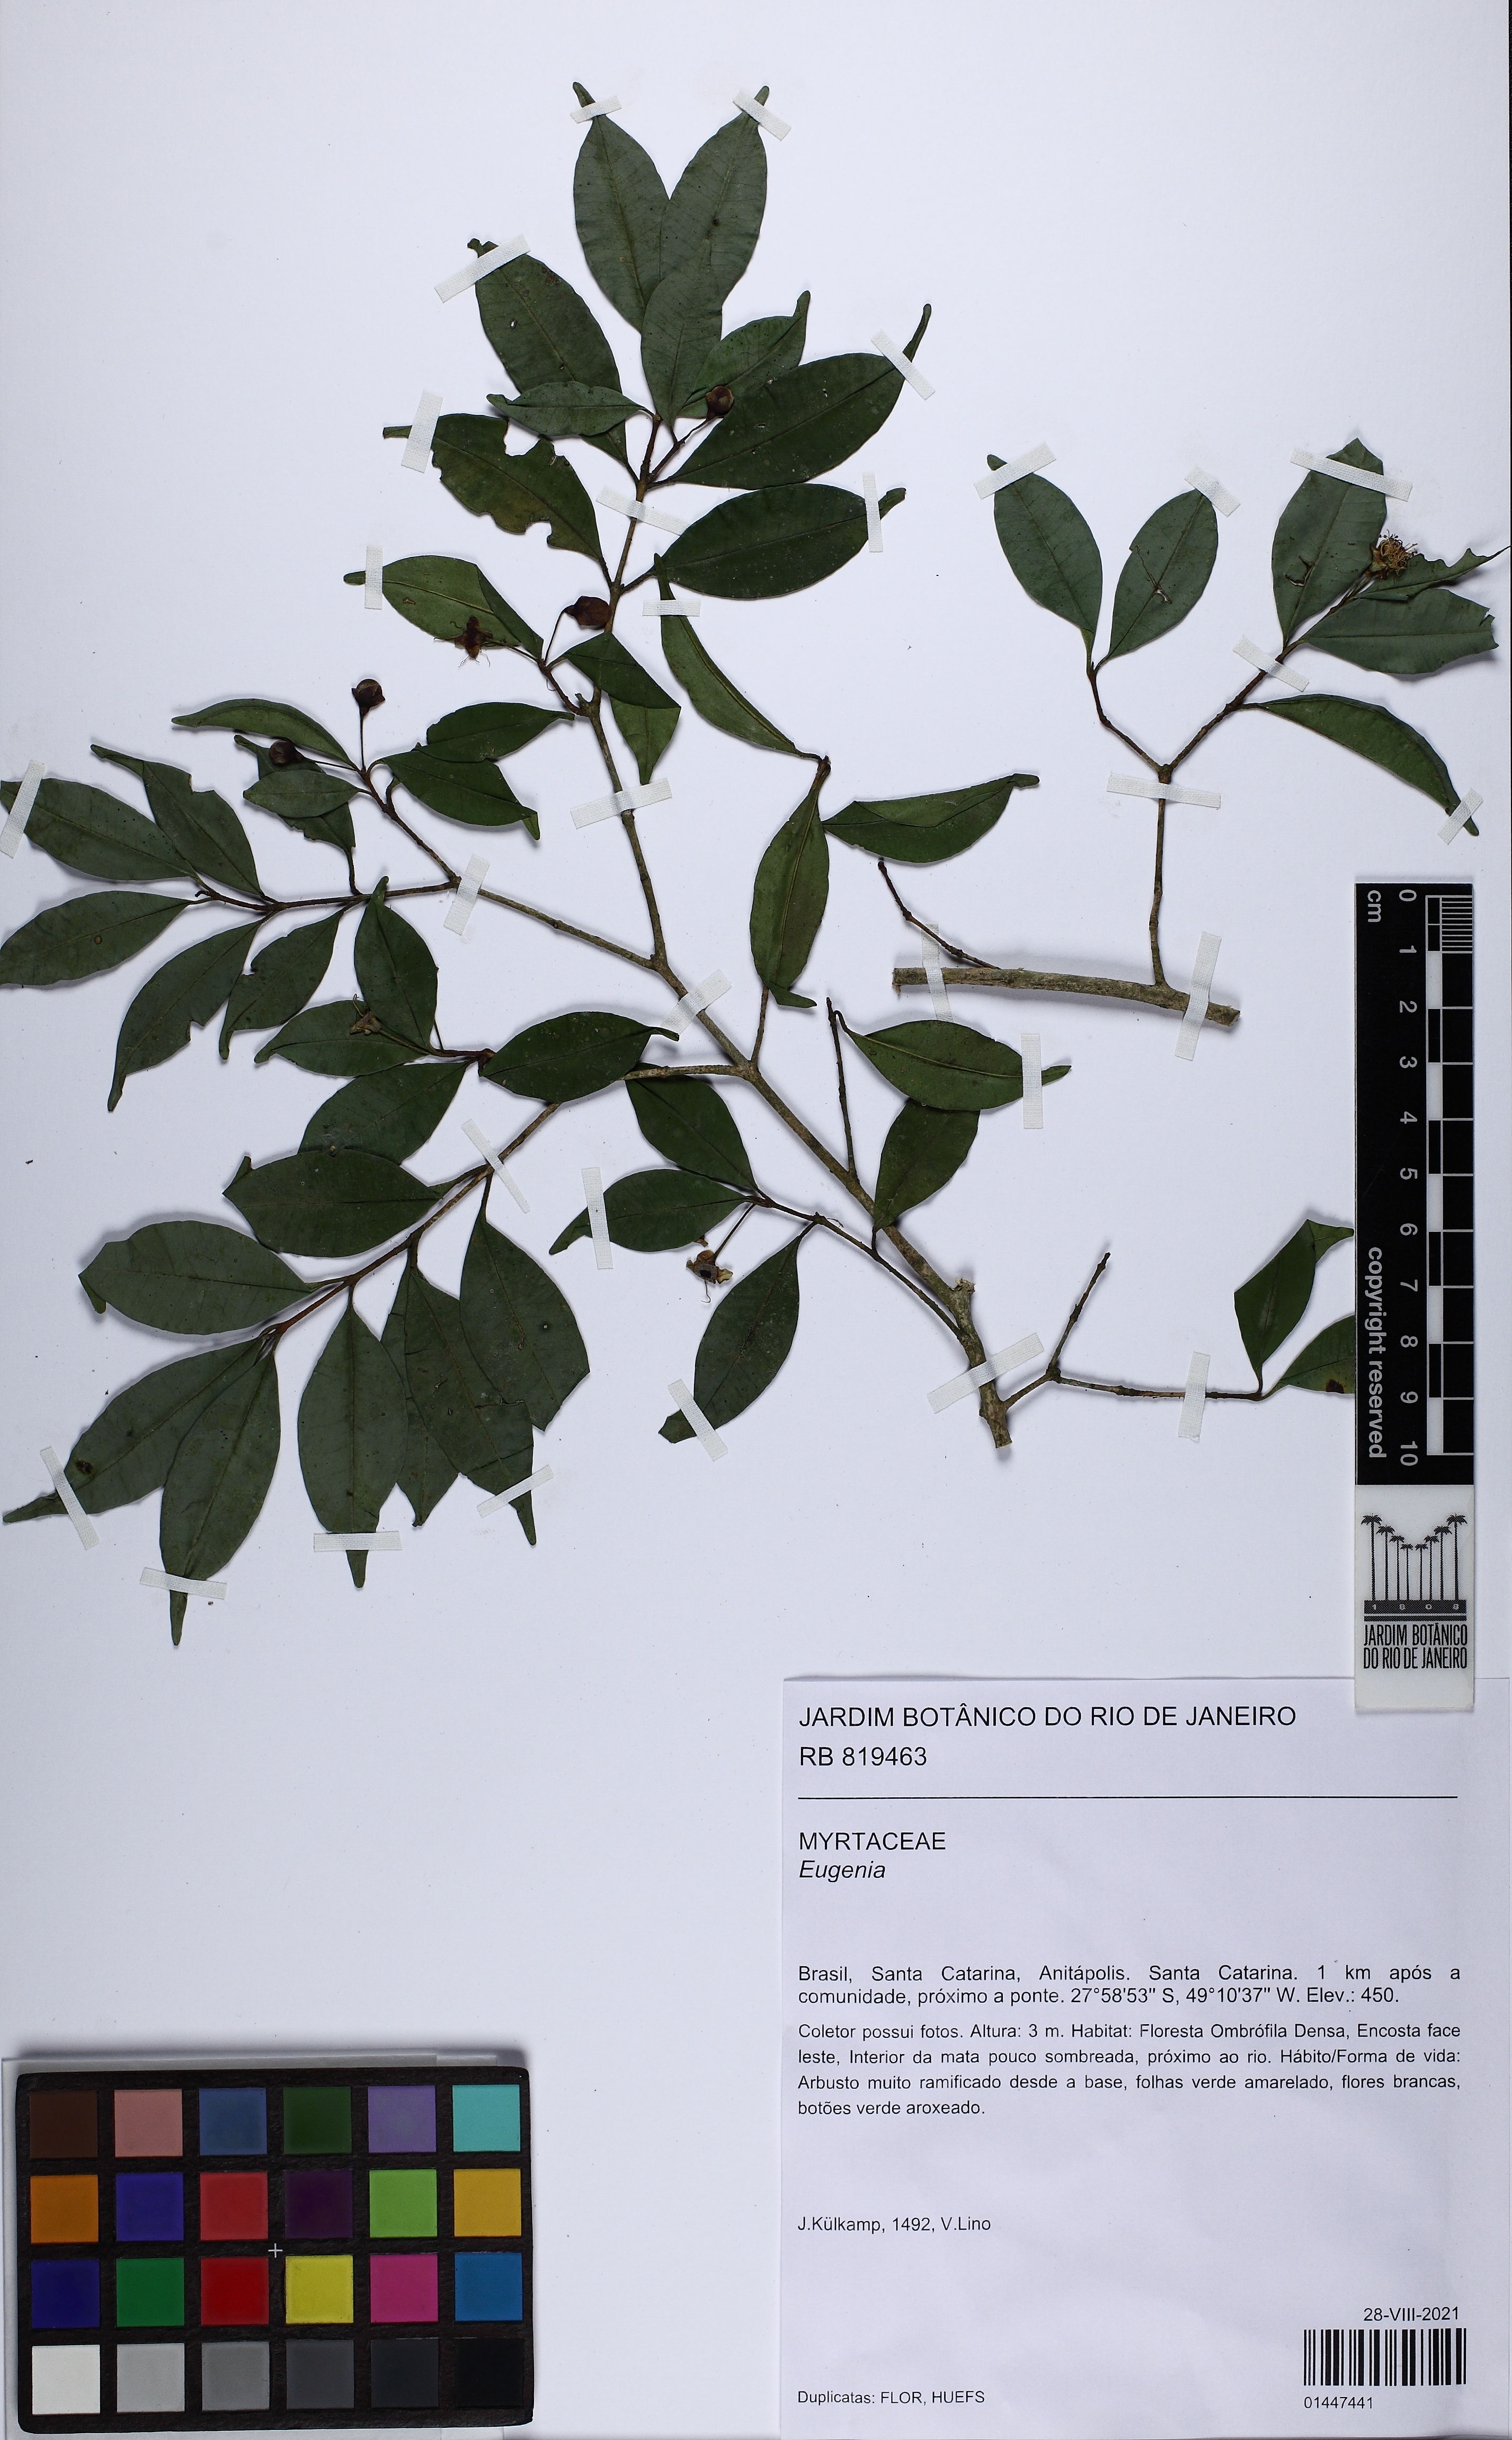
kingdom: Plantae
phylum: Tracheophyta
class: Magnoliopsida
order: Myrtales
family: Myrtaceae
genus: Eugenia
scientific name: Eugenia kleinii
